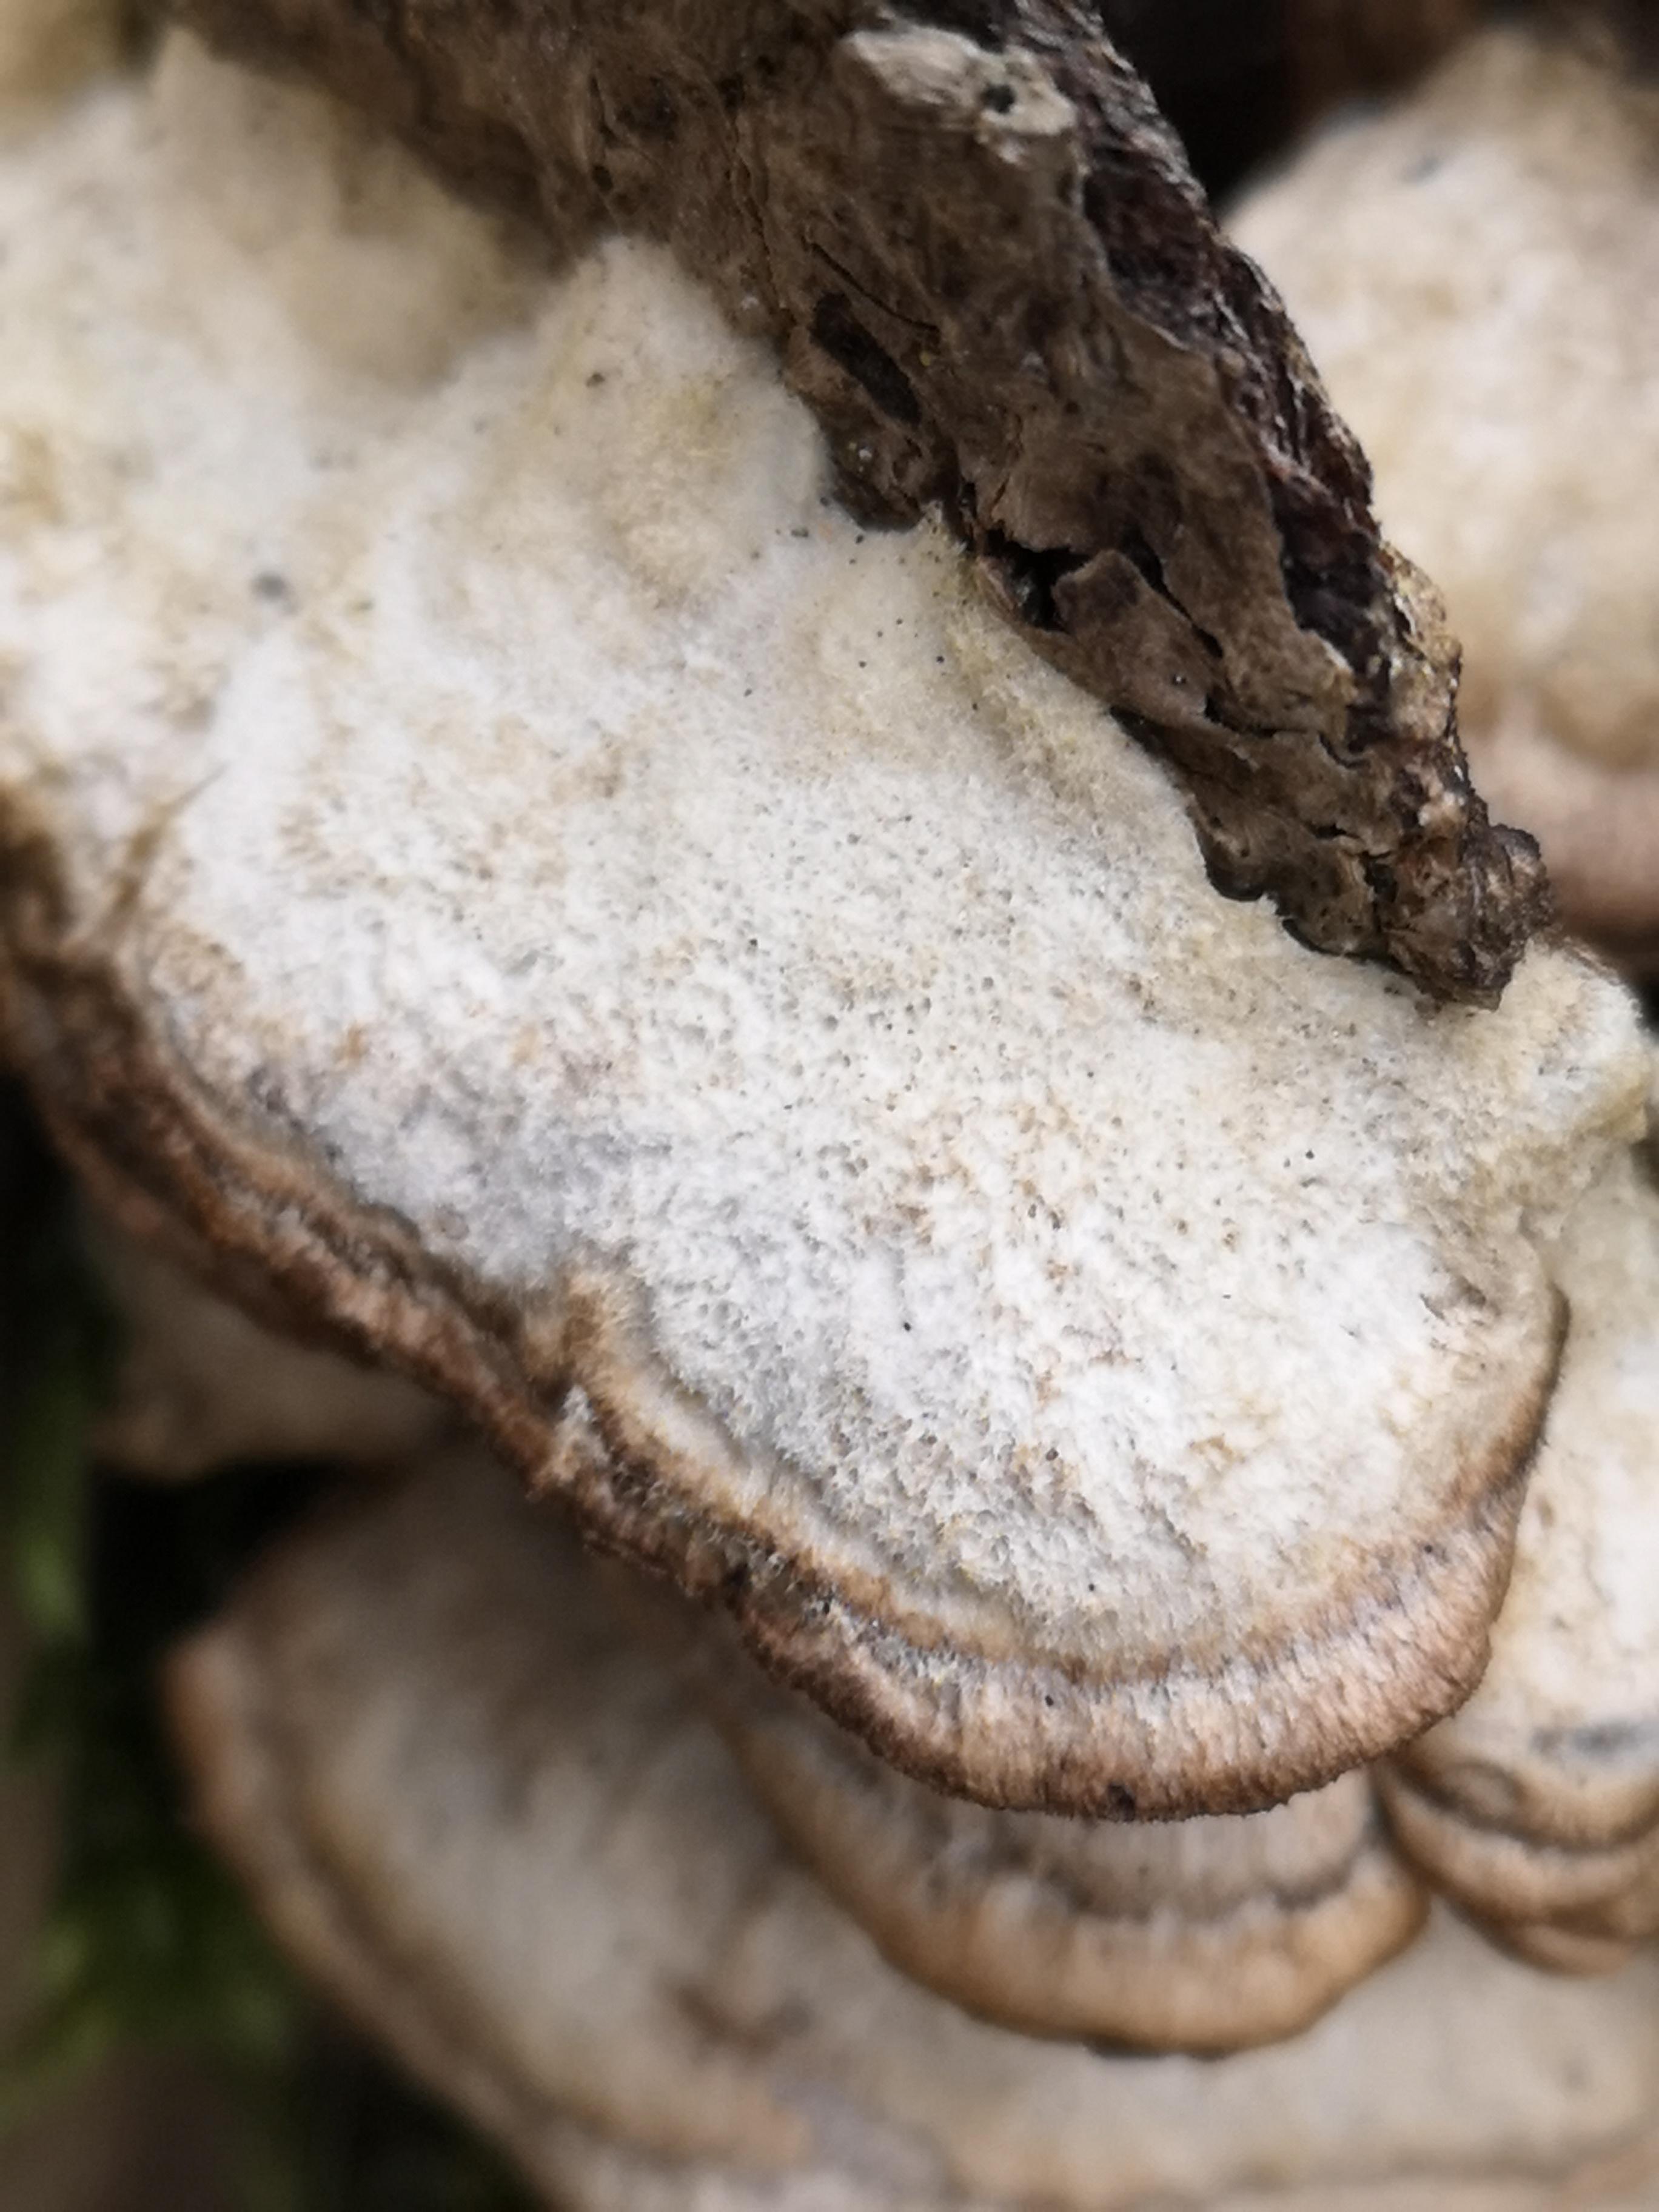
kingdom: Fungi
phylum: Basidiomycota
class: Agaricomycetes
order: Polyporales
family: Phanerochaetaceae
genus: Bjerkandera
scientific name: Bjerkandera adusta
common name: sveden sodporesvamp
